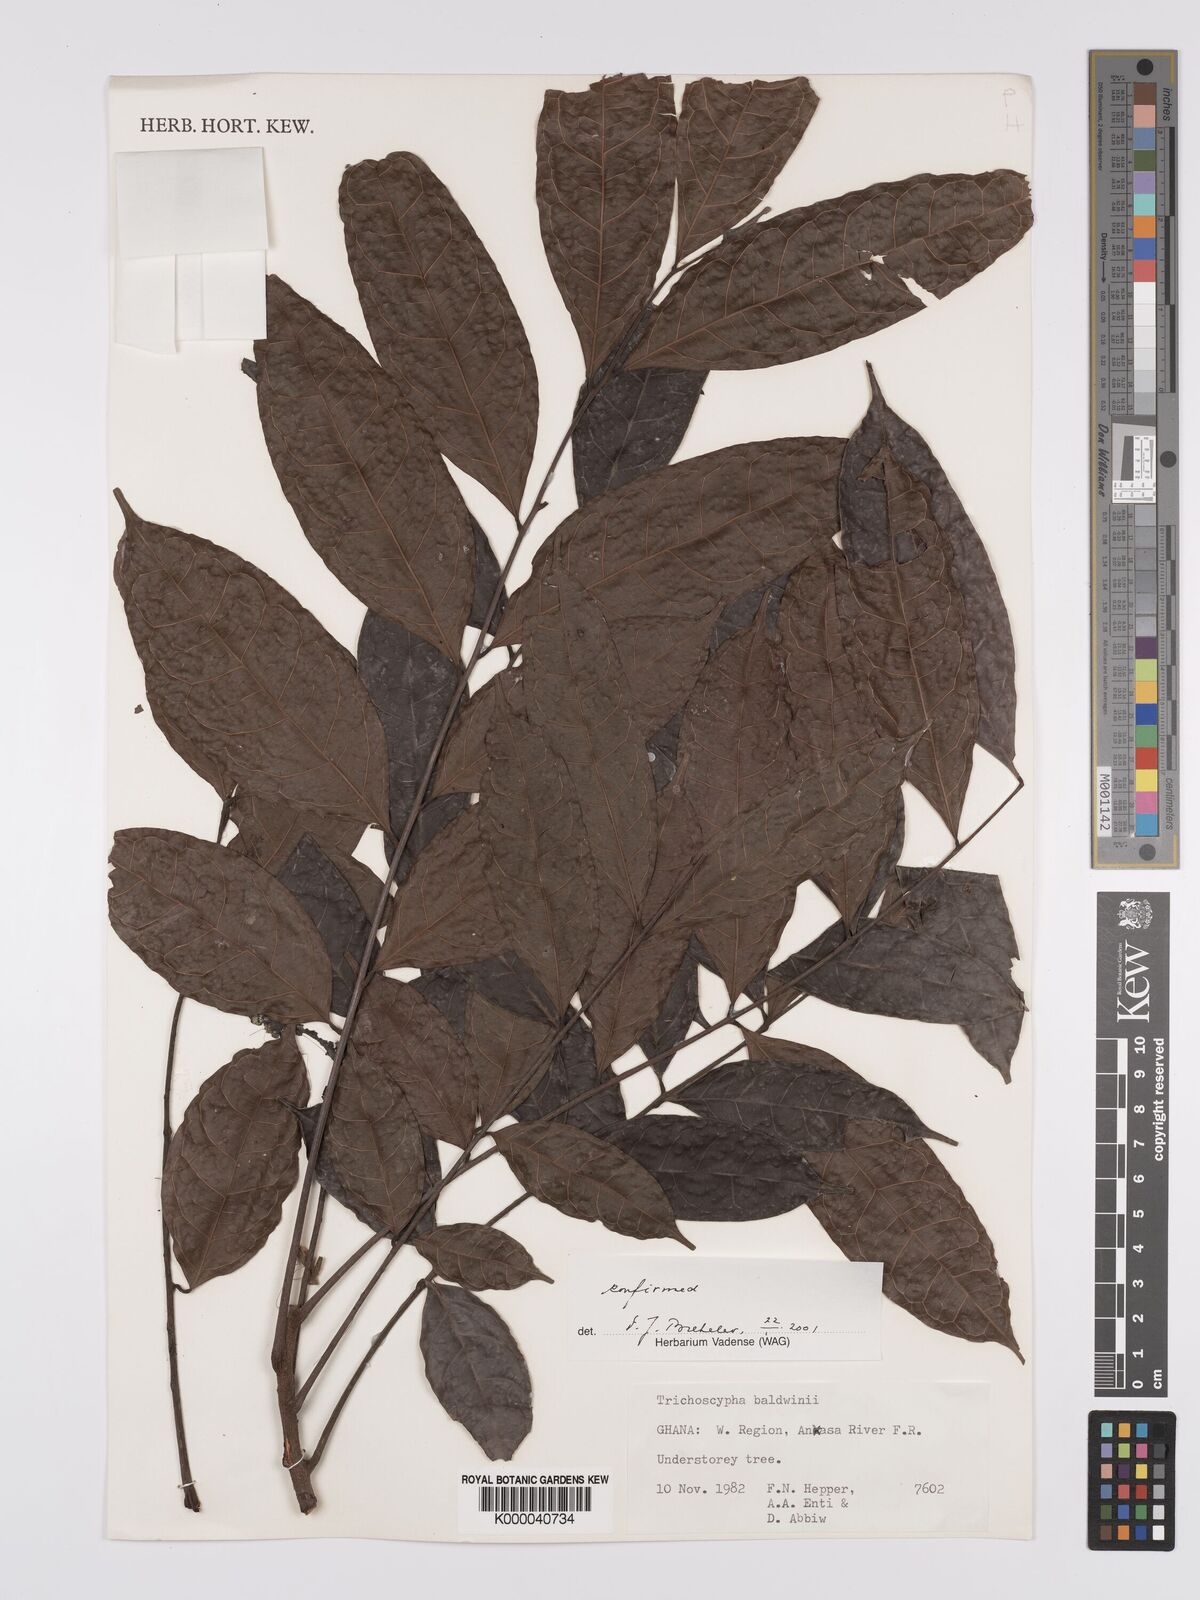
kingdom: Plantae
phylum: Tracheophyta
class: Magnoliopsida
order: Sapindales
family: Anacardiaceae
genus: Trichoscypha
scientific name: Trichoscypha baldwinii
